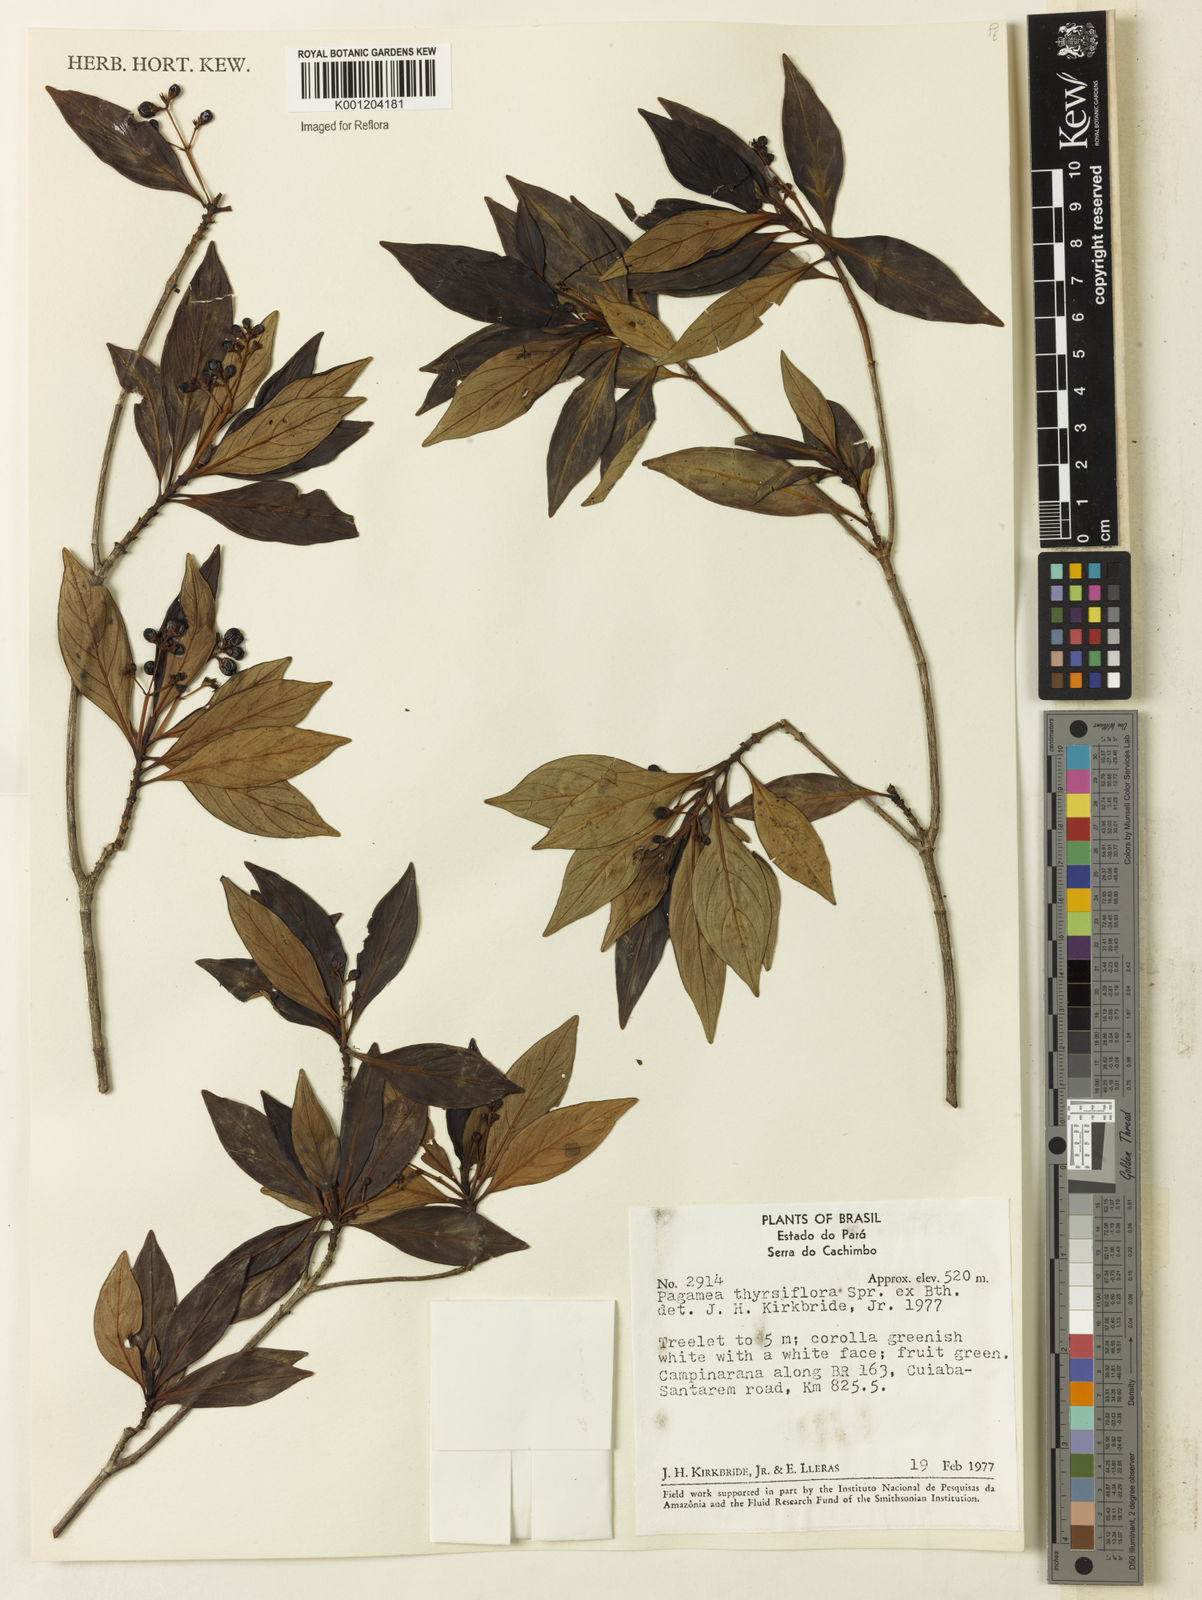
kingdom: Plantae
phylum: Tracheophyta
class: Magnoliopsida
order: Gentianales
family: Rubiaceae
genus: Pagamea
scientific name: Pagamea thyrsiflora
